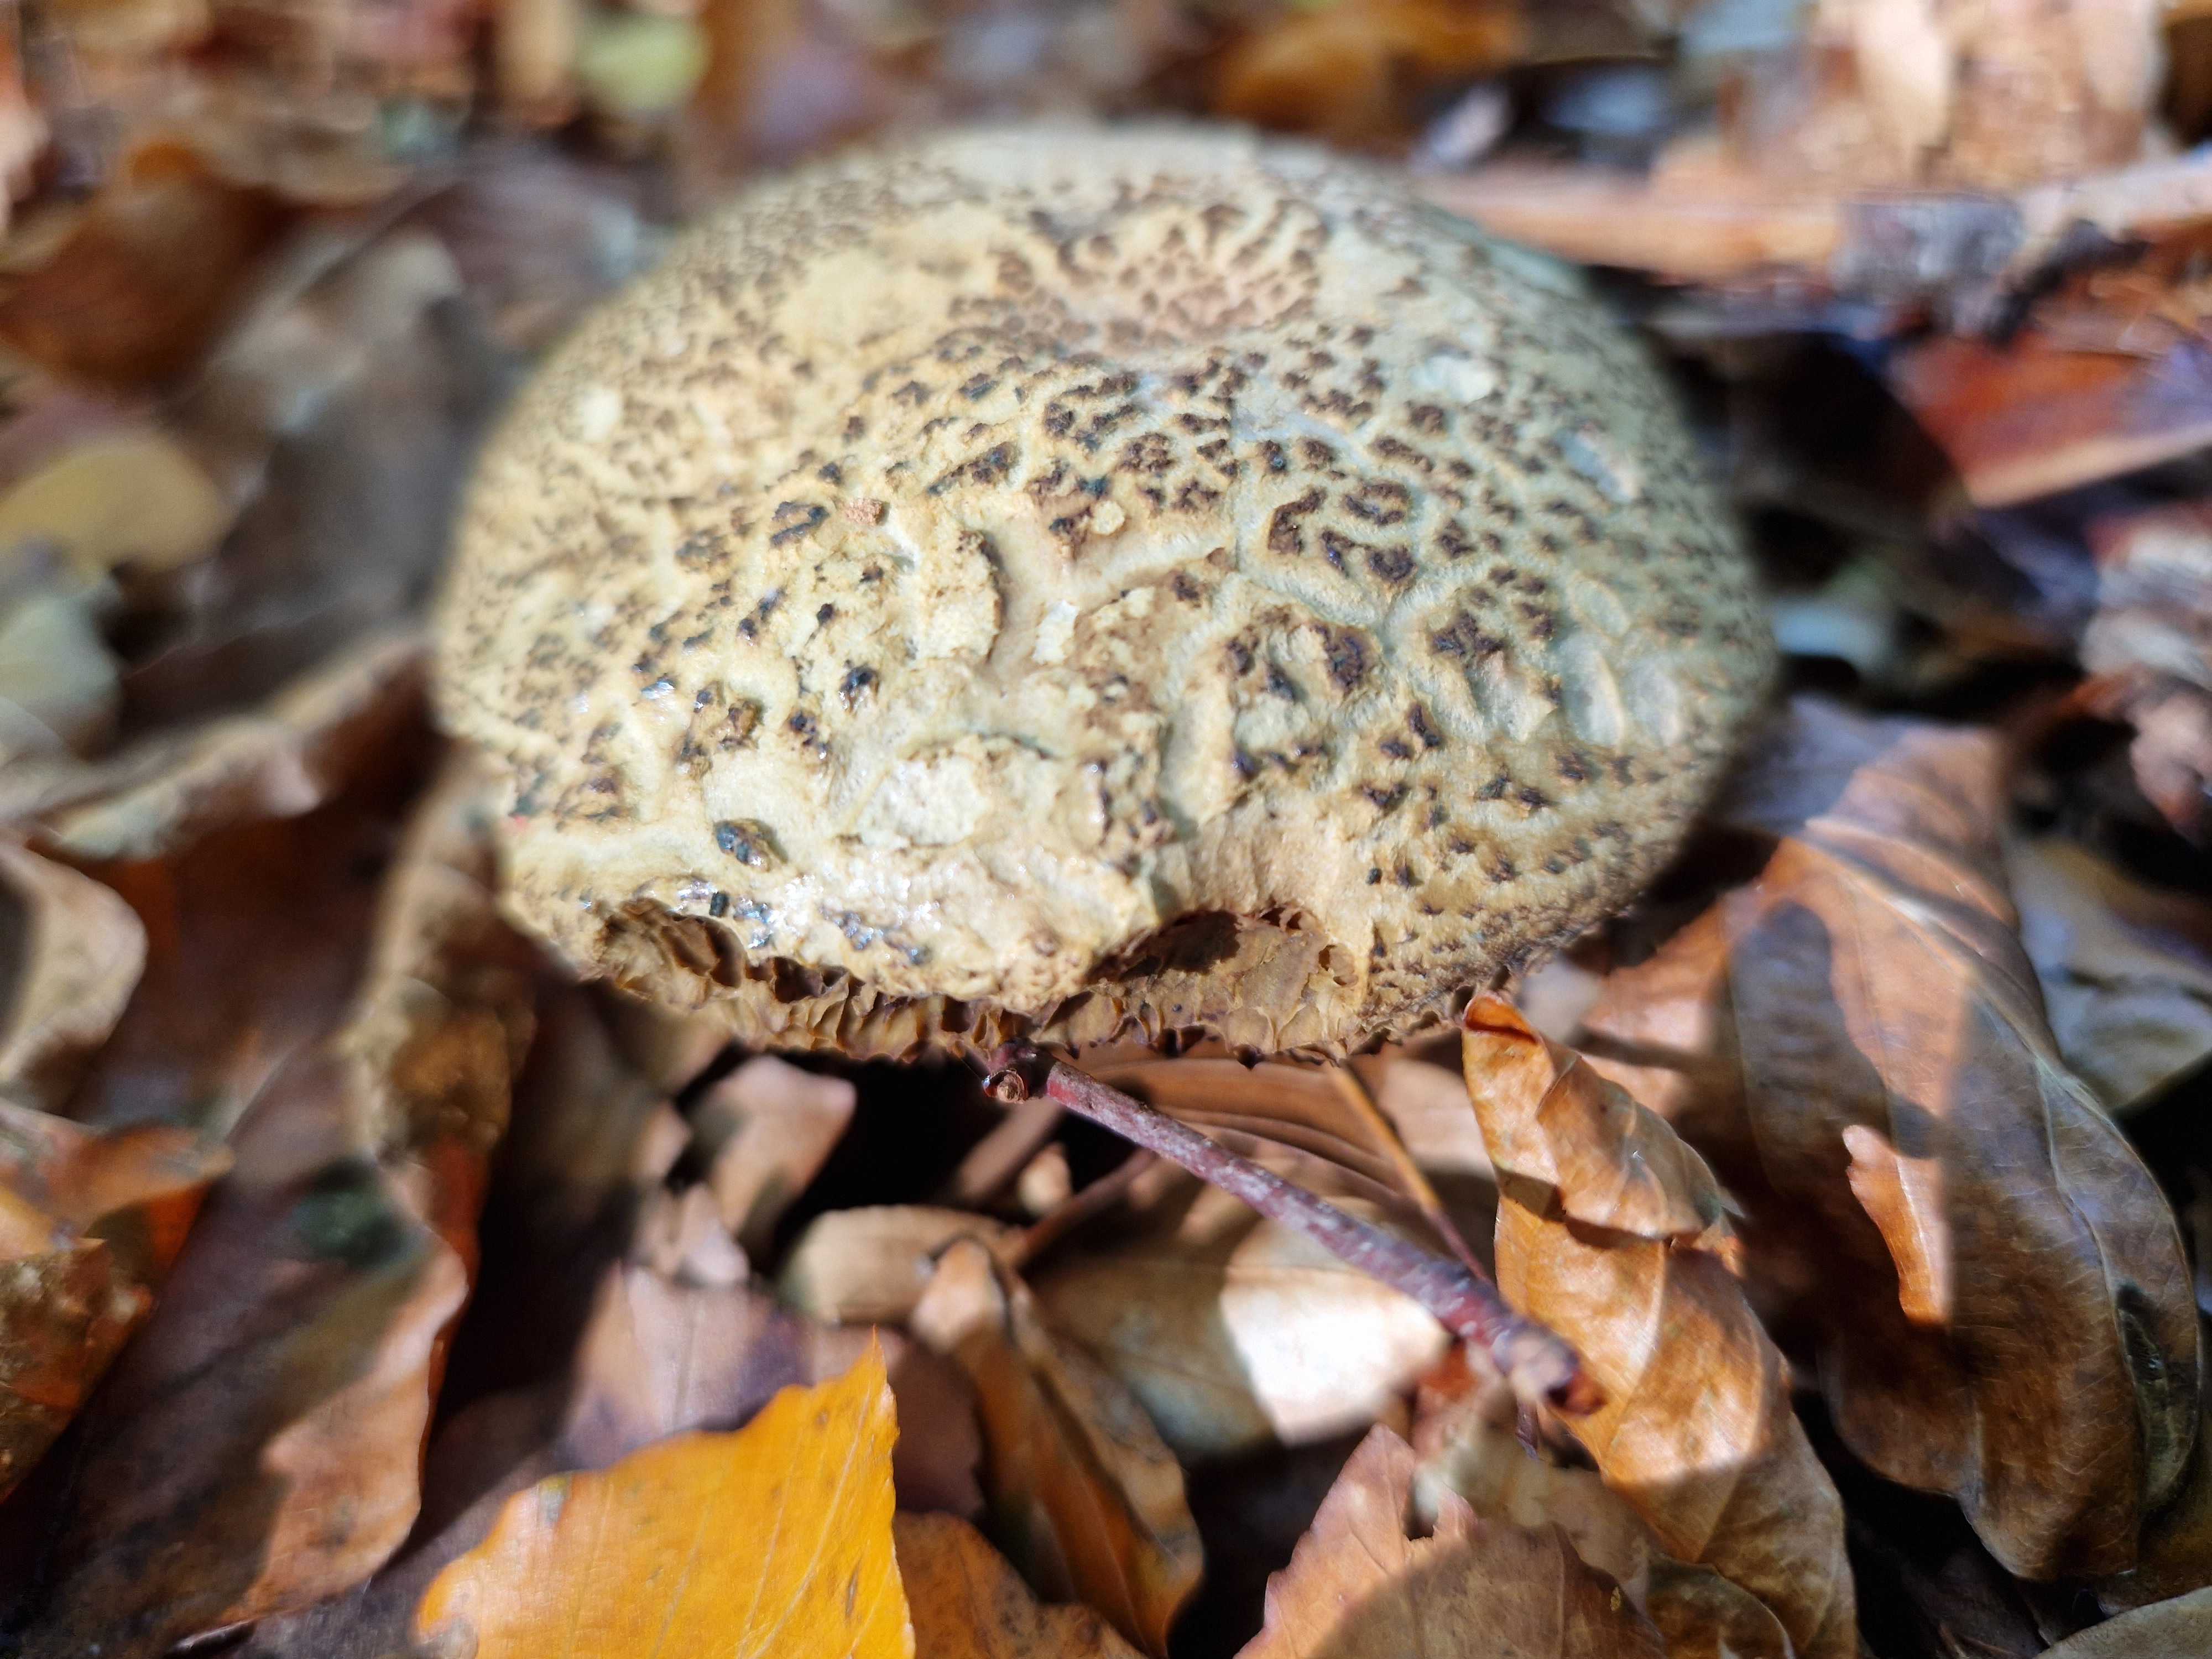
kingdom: Fungi
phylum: Basidiomycota
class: Agaricomycetes
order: Boletales
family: Boletaceae
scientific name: Boletaceae
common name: rørhatfamilien
